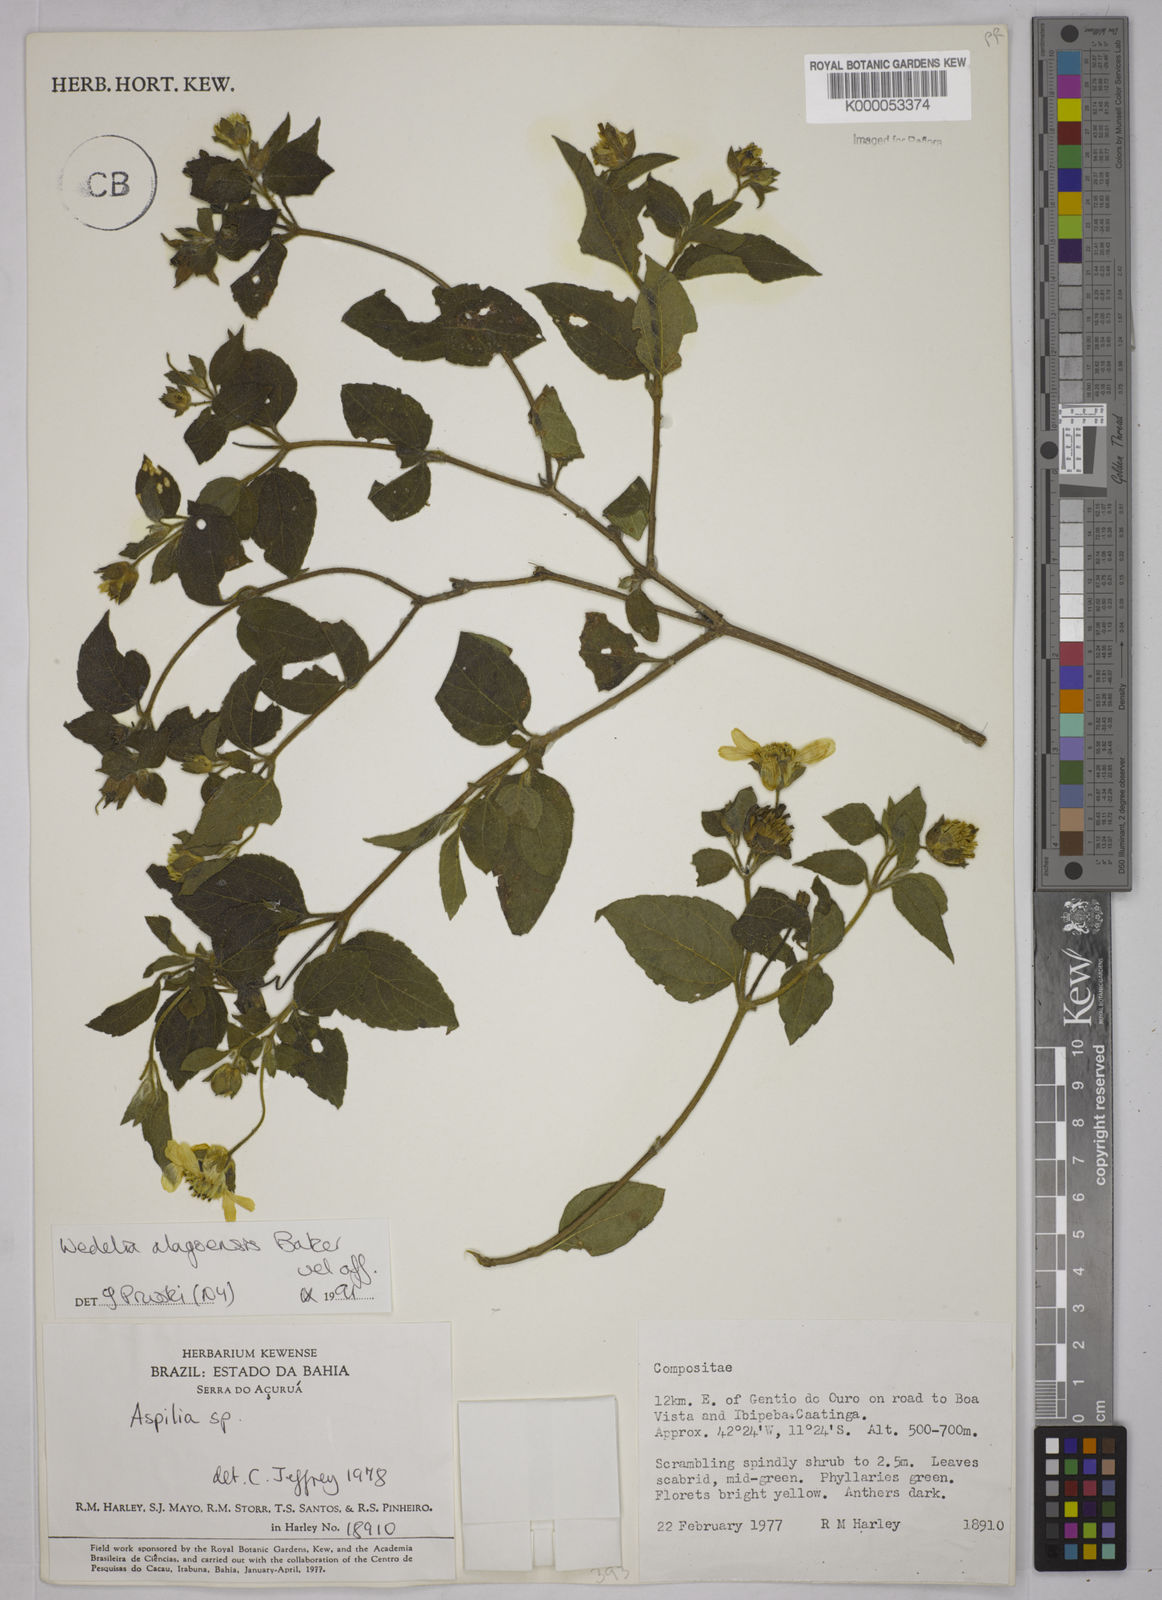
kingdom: Plantae
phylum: Tracheophyta
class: Magnoliopsida
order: Asterales
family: Asteraceae
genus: Wedelia
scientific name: Wedelia alagoensis
